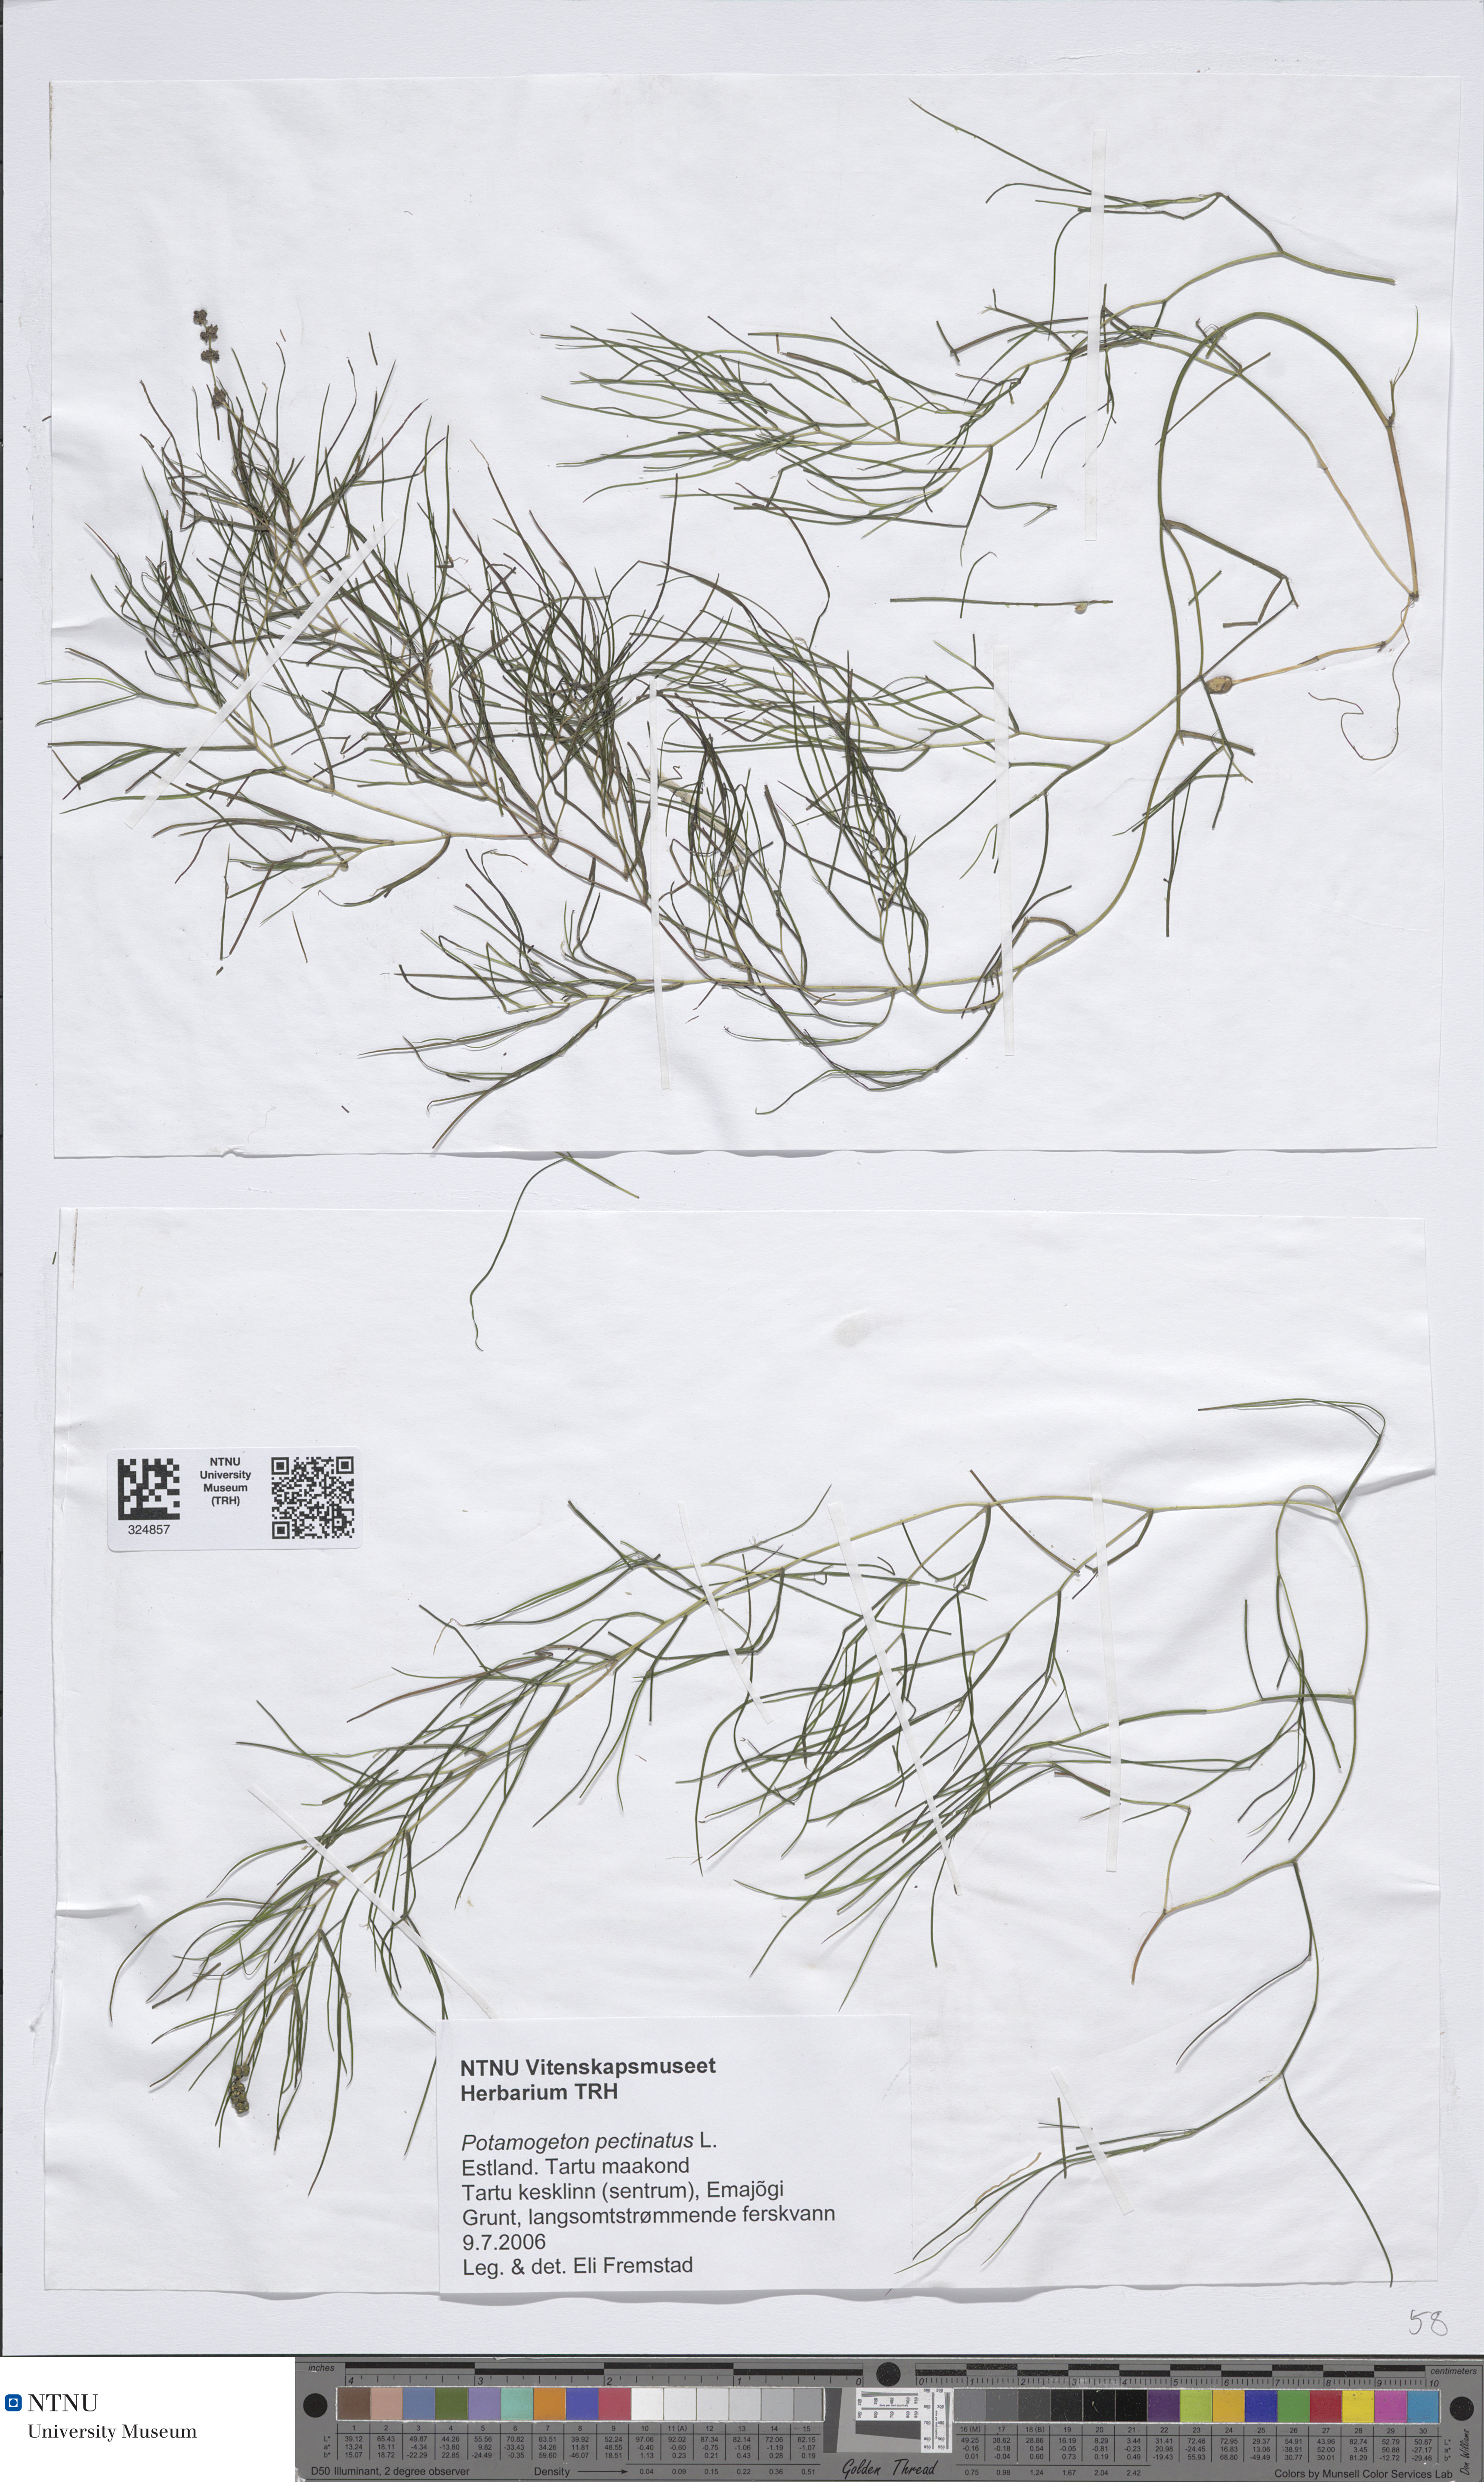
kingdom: Plantae
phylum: Tracheophyta
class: Liliopsida
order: Alismatales
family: Potamogetonaceae
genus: Stuckenia
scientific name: Stuckenia pectinata
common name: Sago pondweed
